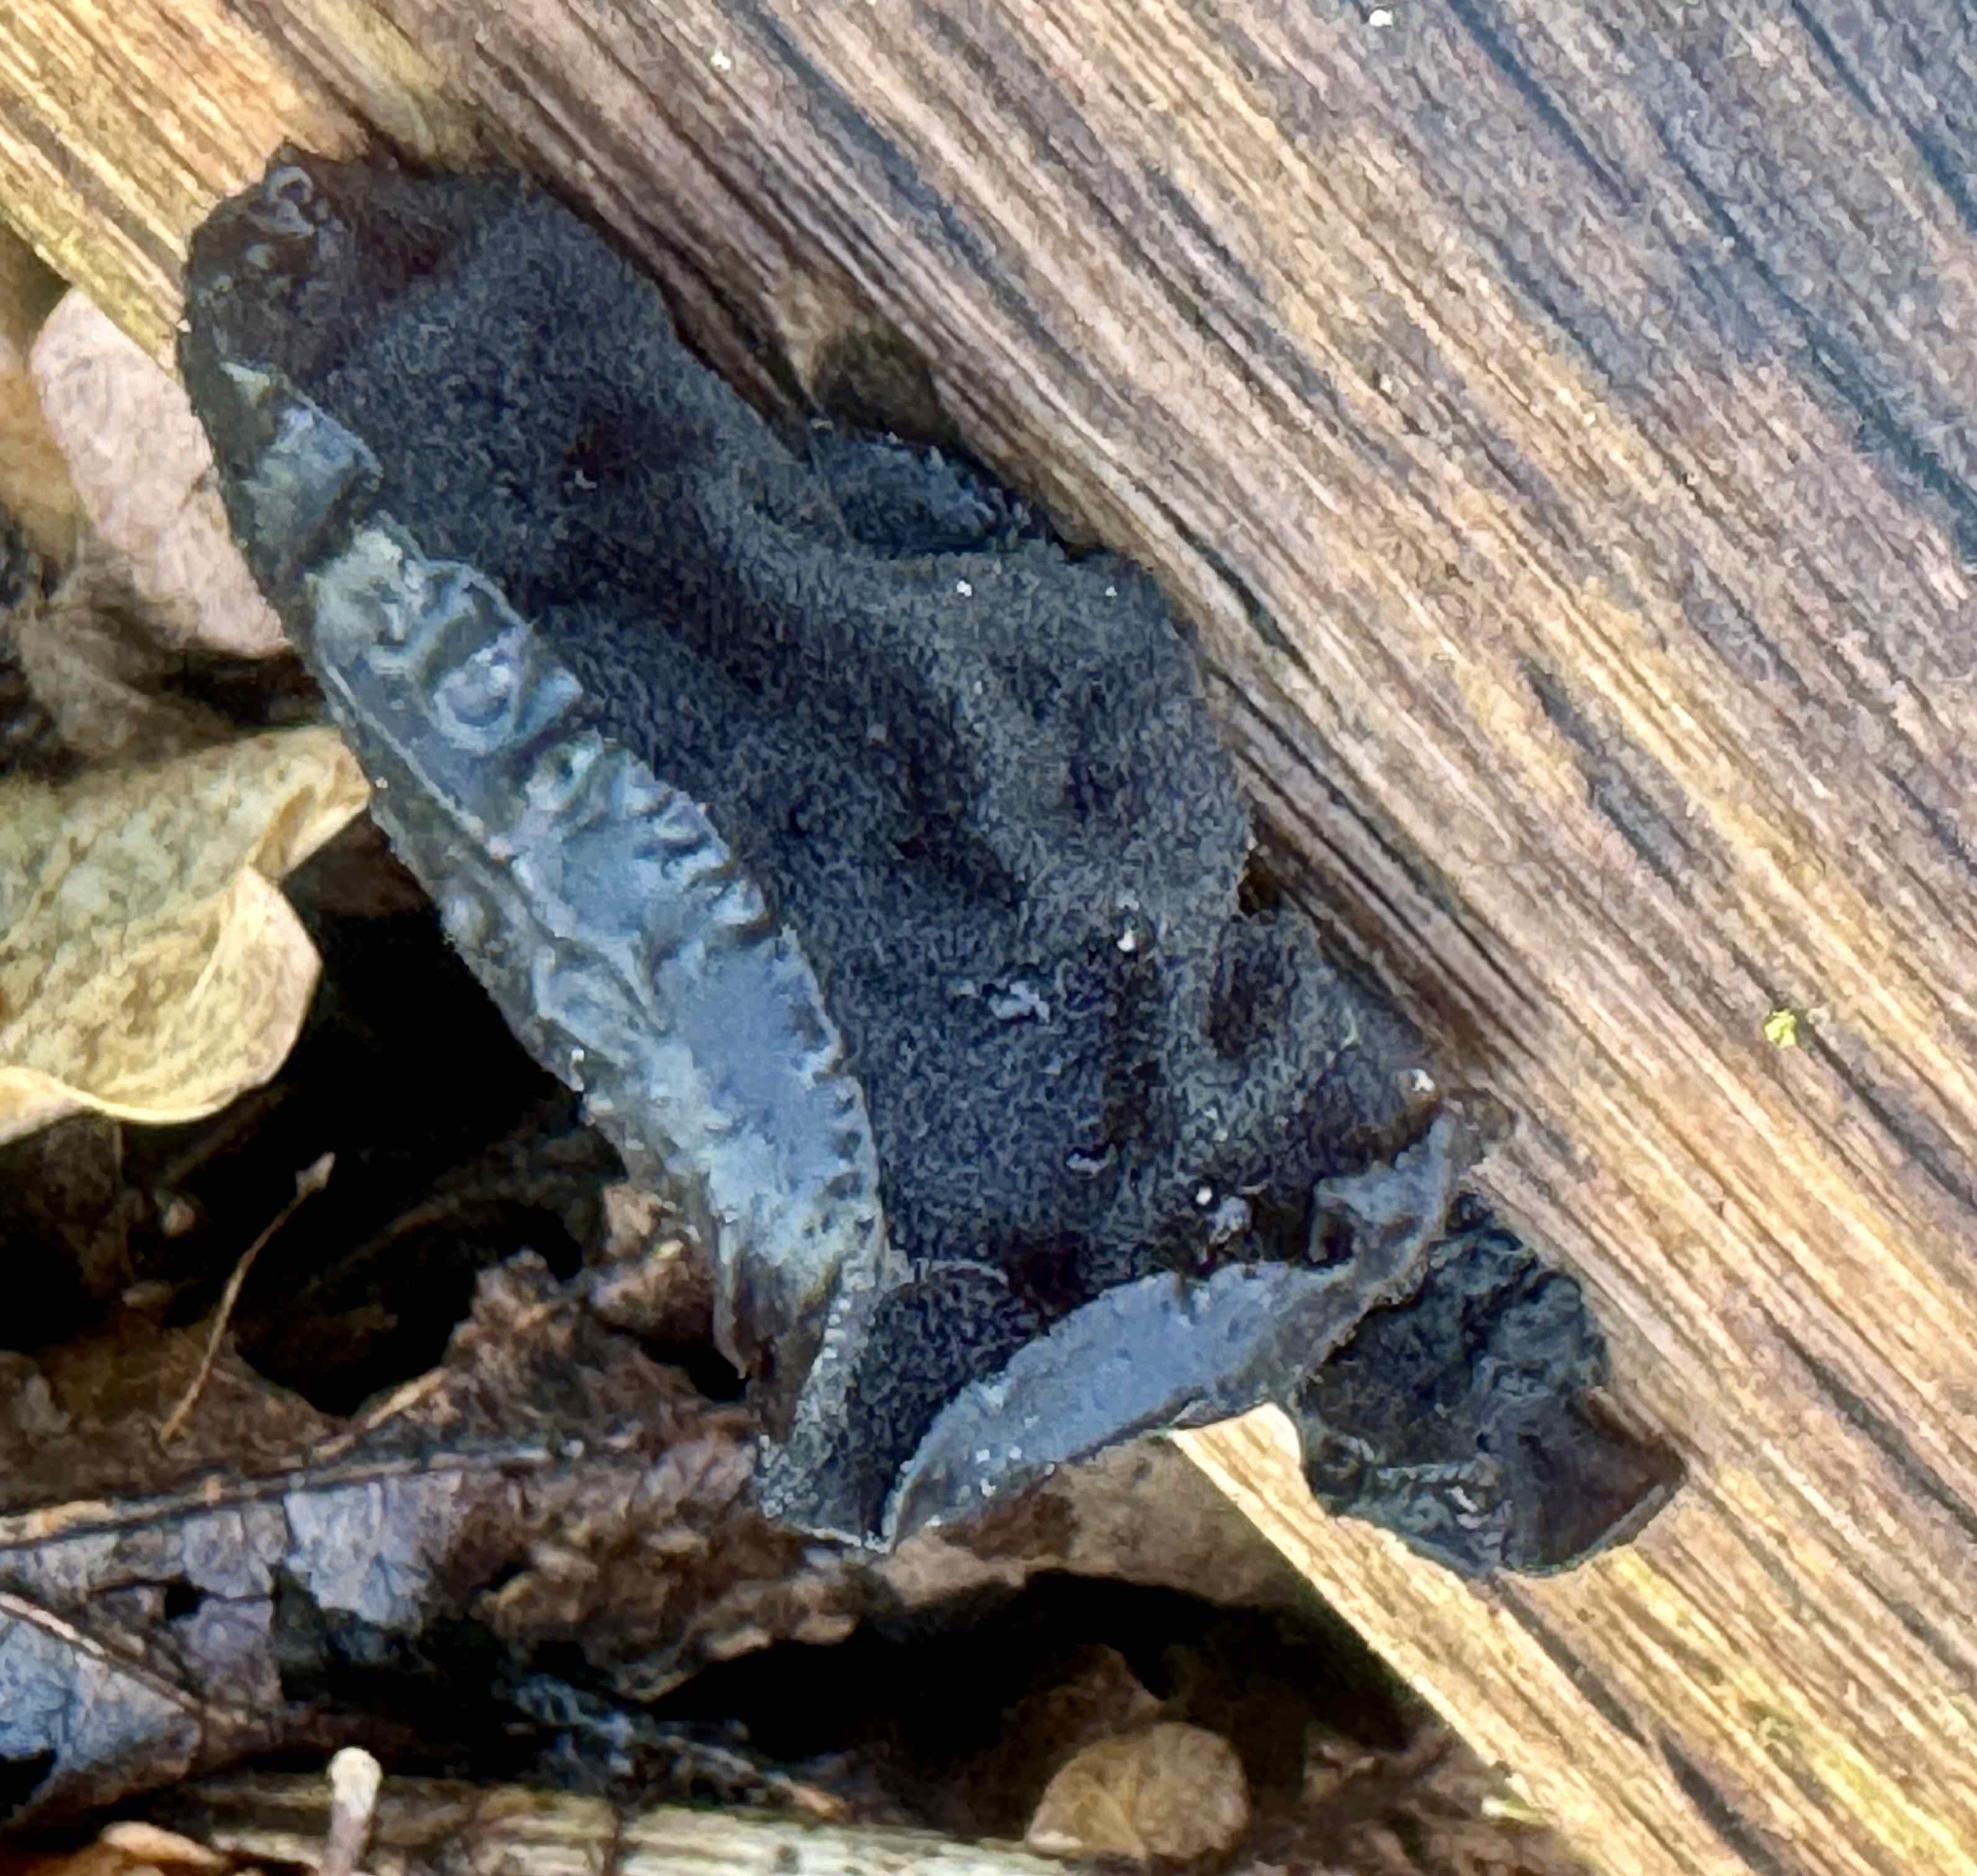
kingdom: Fungi
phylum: Basidiomycota
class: Agaricomycetes
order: Auriculariales
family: Auriculariaceae
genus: Exidia
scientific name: Exidia glandulosa
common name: ege-bævretop
